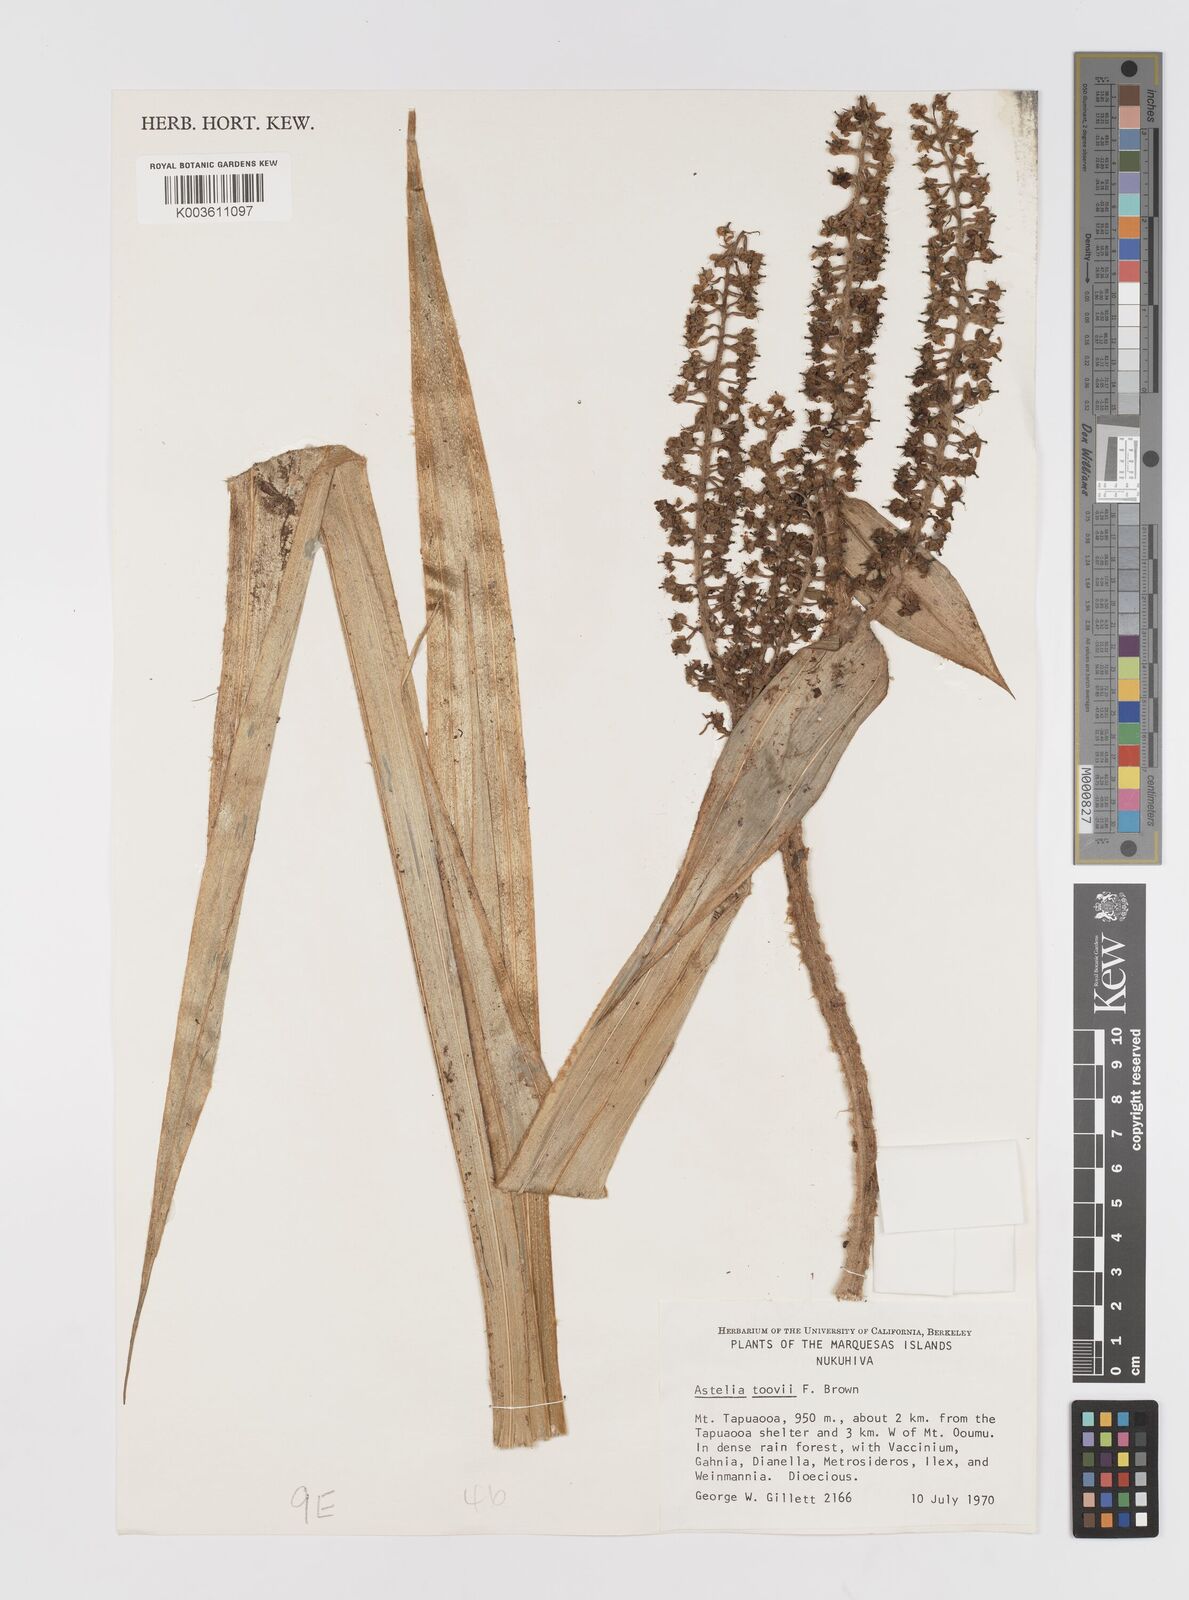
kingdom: Plantae
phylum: Tracheophyta
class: Liliopsida
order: Asparagales
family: Asteliaceae
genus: Astelia
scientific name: Astelia tovii
